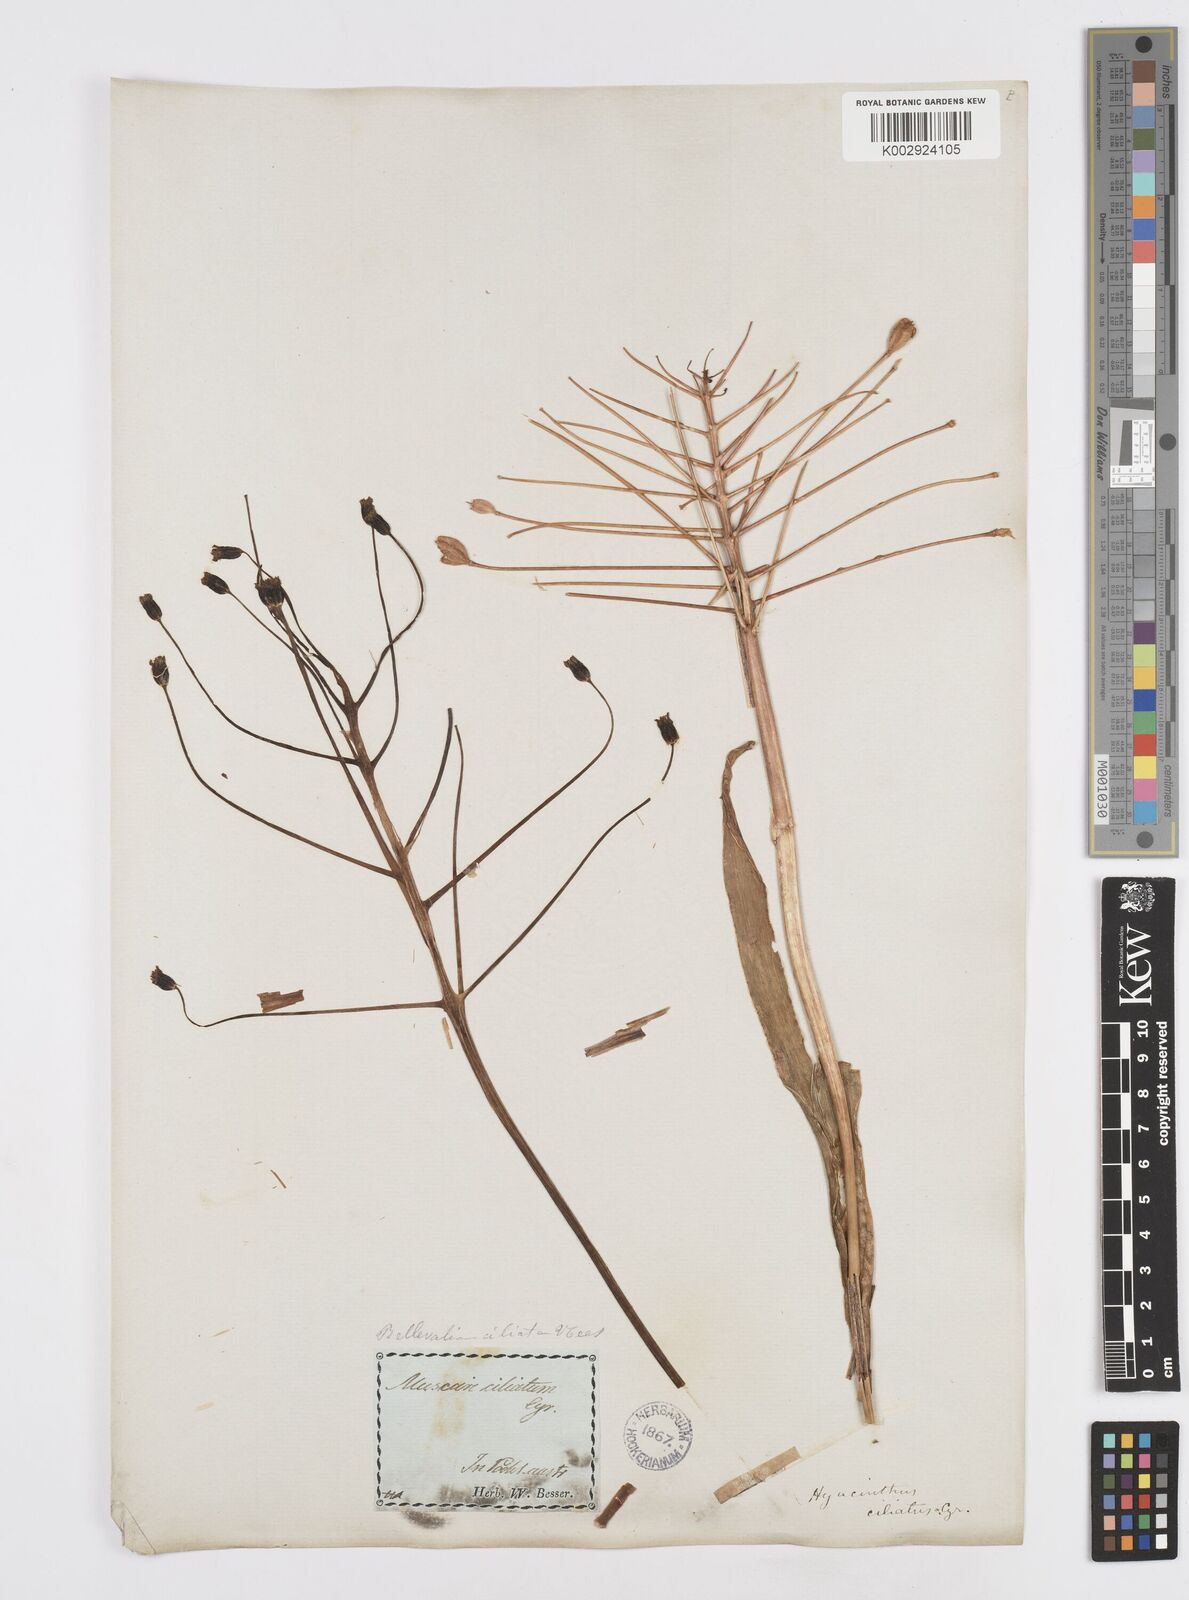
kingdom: Plantae
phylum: Tracheophyta
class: Liliopsida
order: Asparagales
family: Asparagaceae
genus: Bellevalia
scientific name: Bellevalia ciliata
